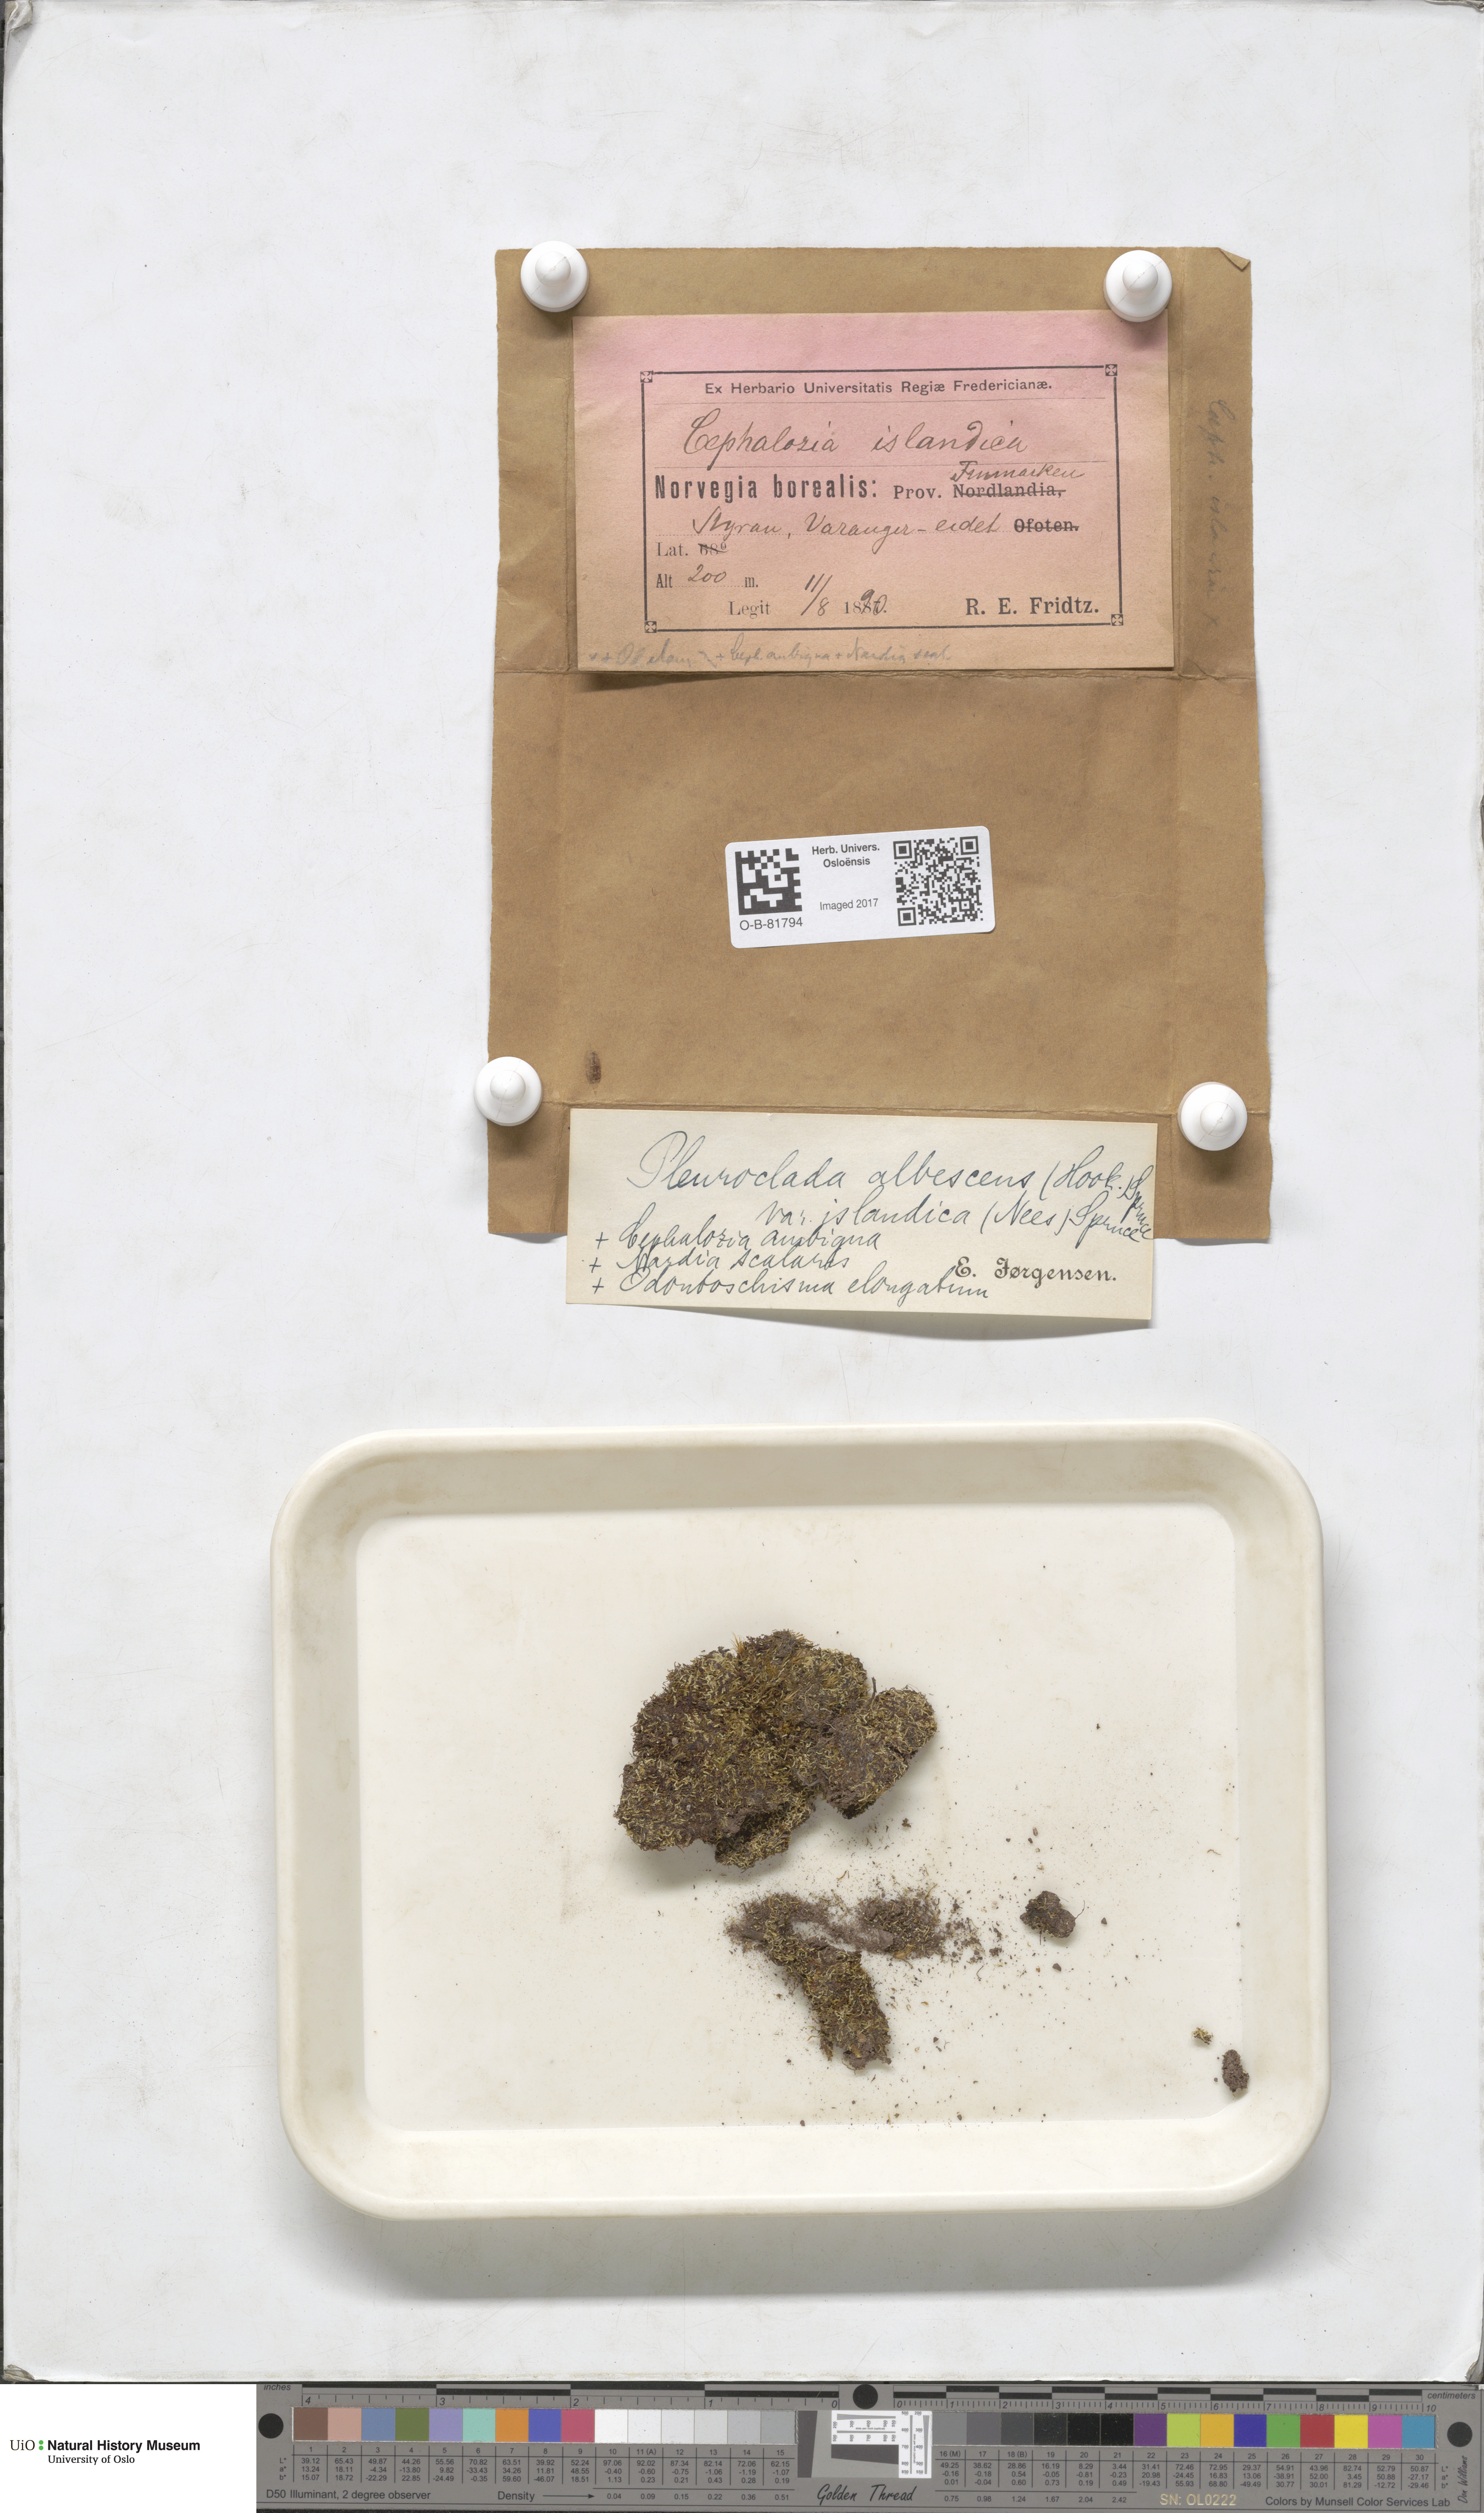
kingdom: Plantae
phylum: Marchantiophyta
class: Jungermanniopsida
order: Jungermanniales
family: Cephaloziaceae
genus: Fuscocephaloziopsis
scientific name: Fuscocephaloziopsis albescens
